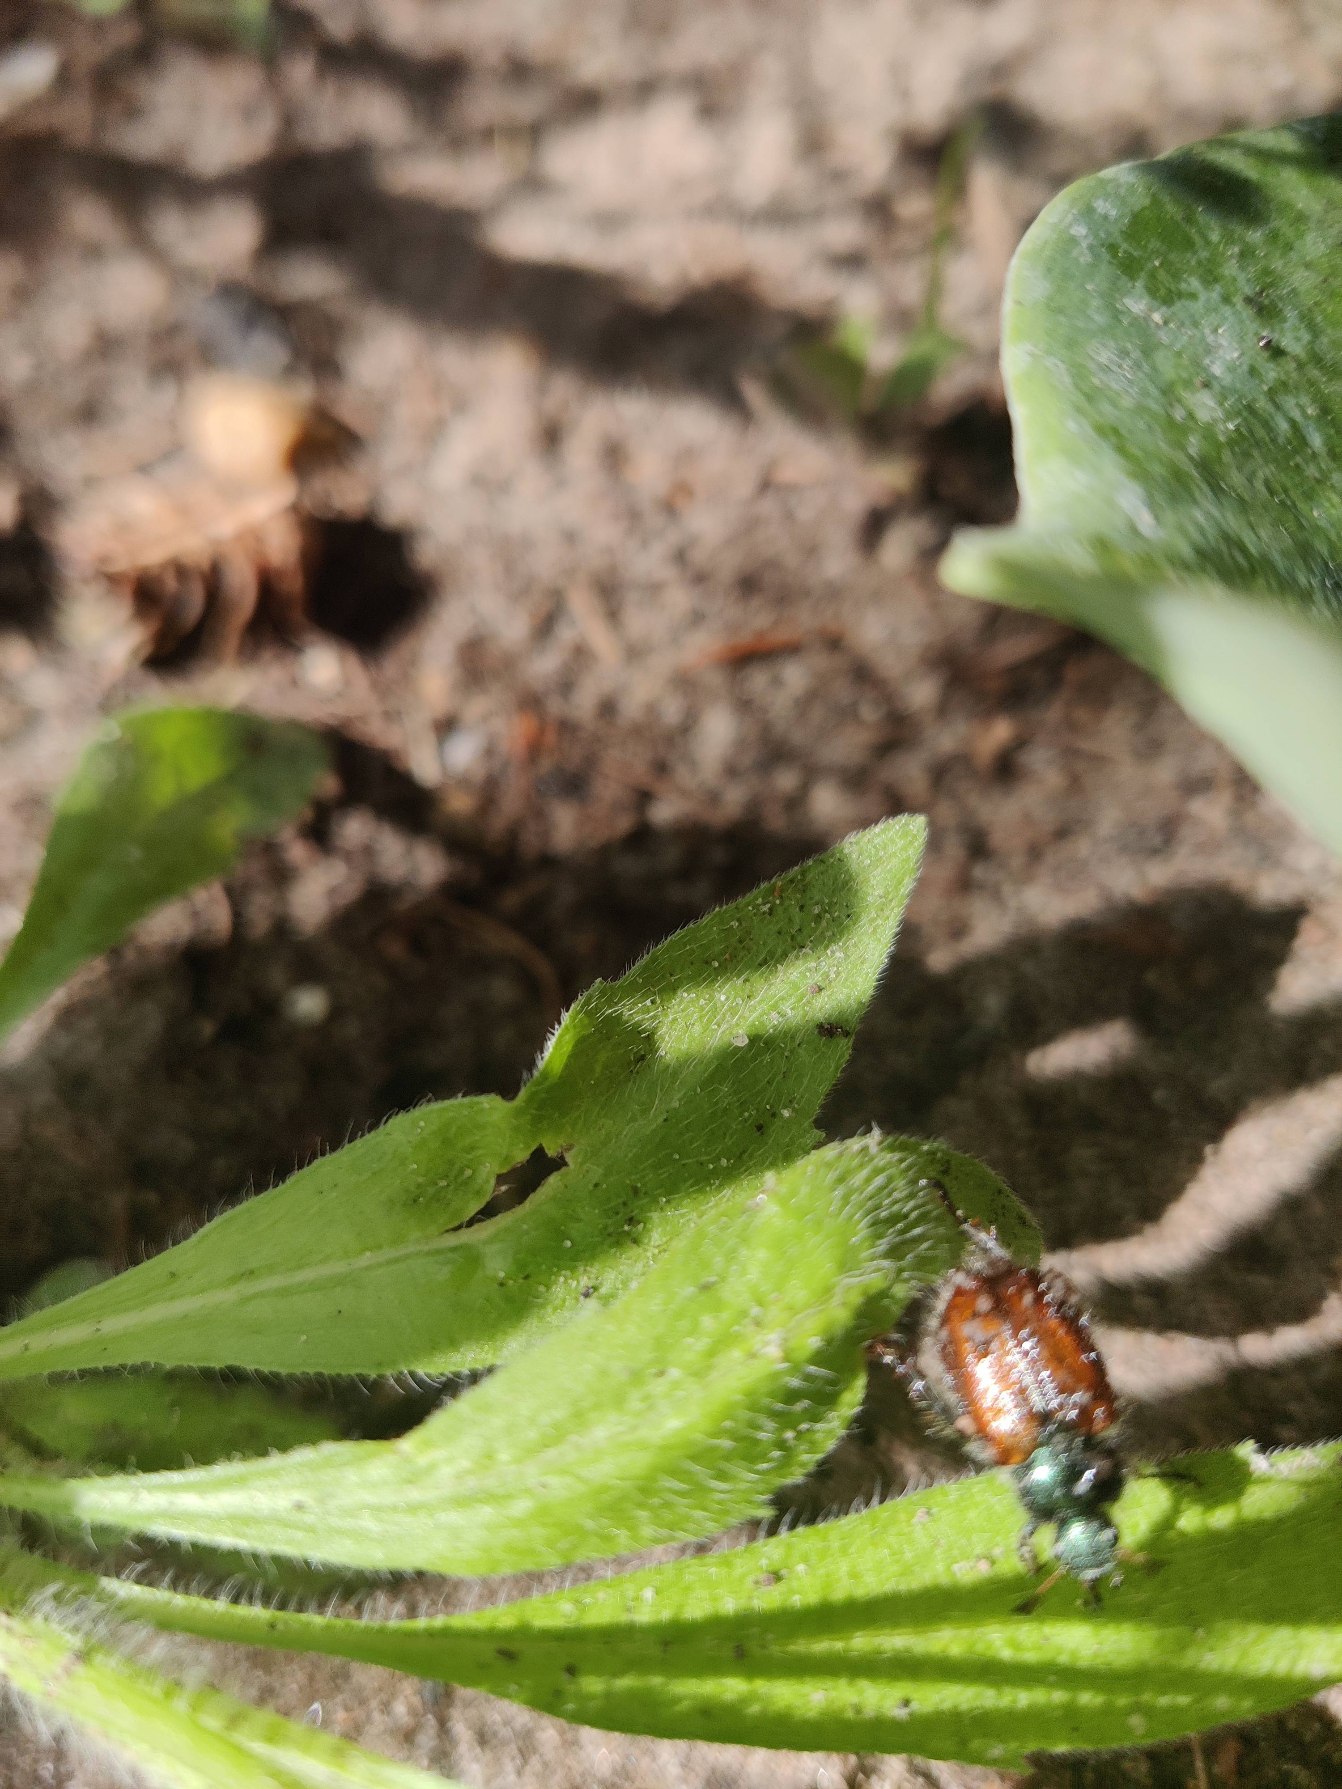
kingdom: Animalia
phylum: Arthropoda
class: Insecta
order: Coleoptera
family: Scarabaeidae
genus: Phyllopertha
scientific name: Phyllopertha horticola
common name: Gåsebille
